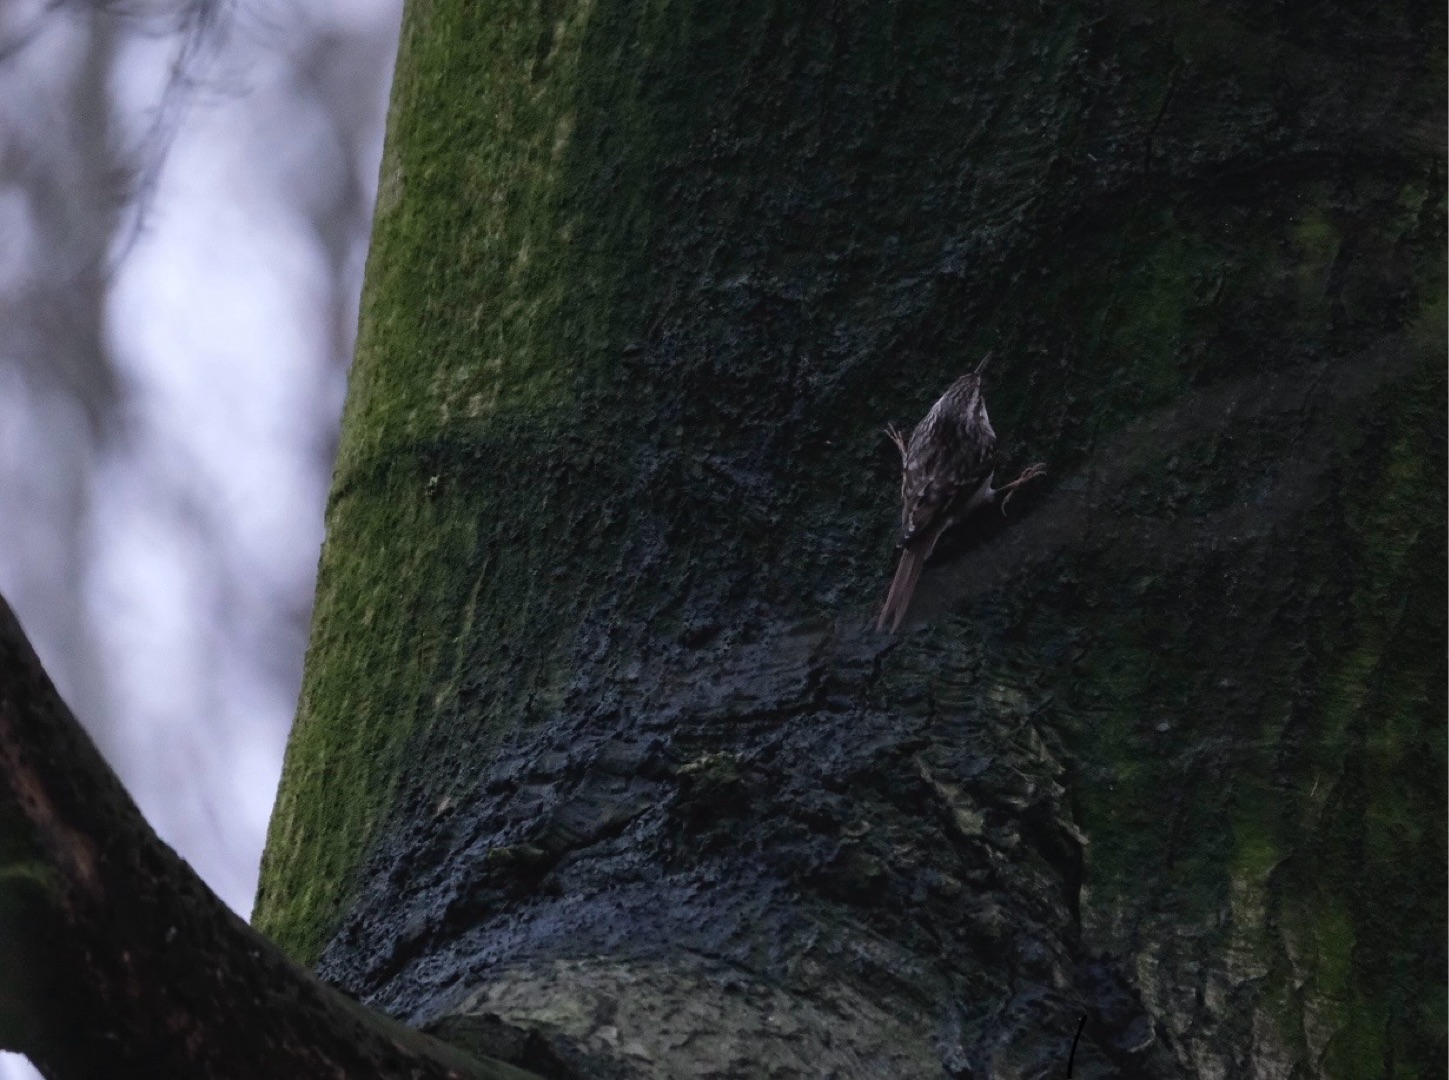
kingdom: Animalia
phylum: Chordata
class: Aves
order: Passeriformes
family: Certhiidae
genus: Certhia
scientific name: Certhia brachydactyla
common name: Korttået træløber
